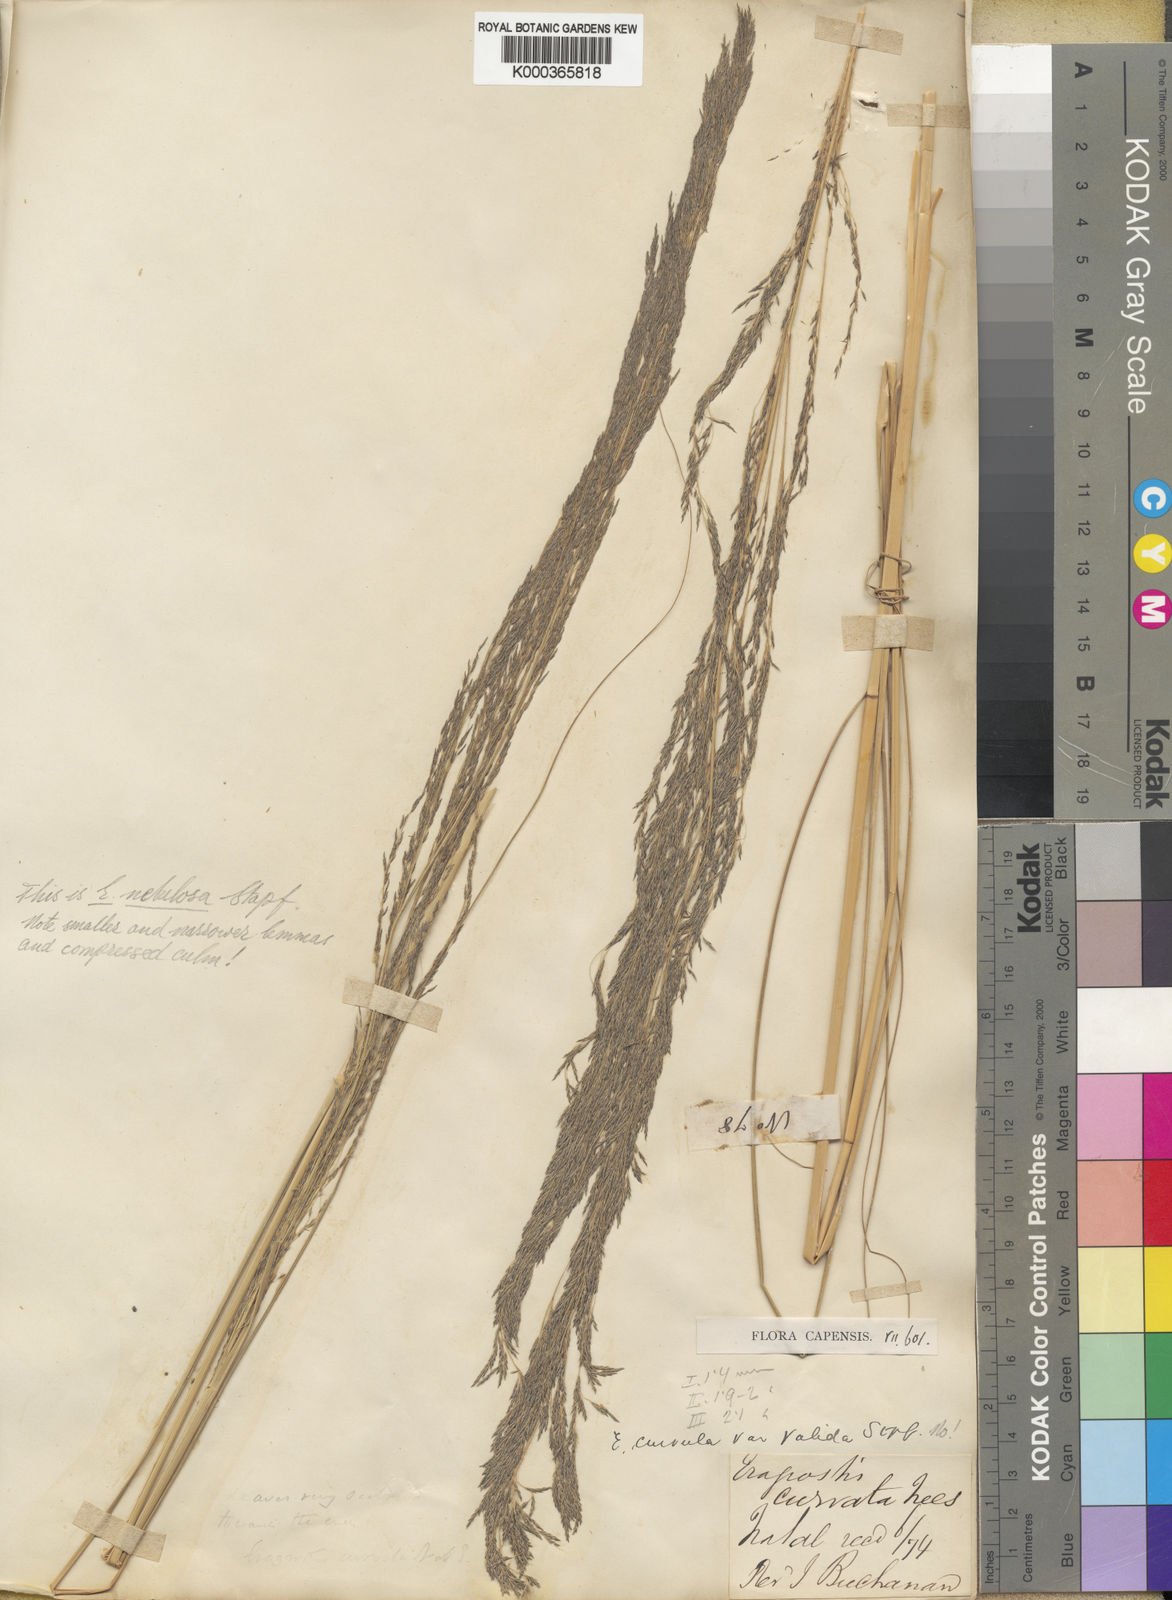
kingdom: Plantae
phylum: Tracheophyta
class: Liliopsida
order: Poales
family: Poaceae
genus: Eragrostis
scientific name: Eragrostis curvula
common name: African love-grass
